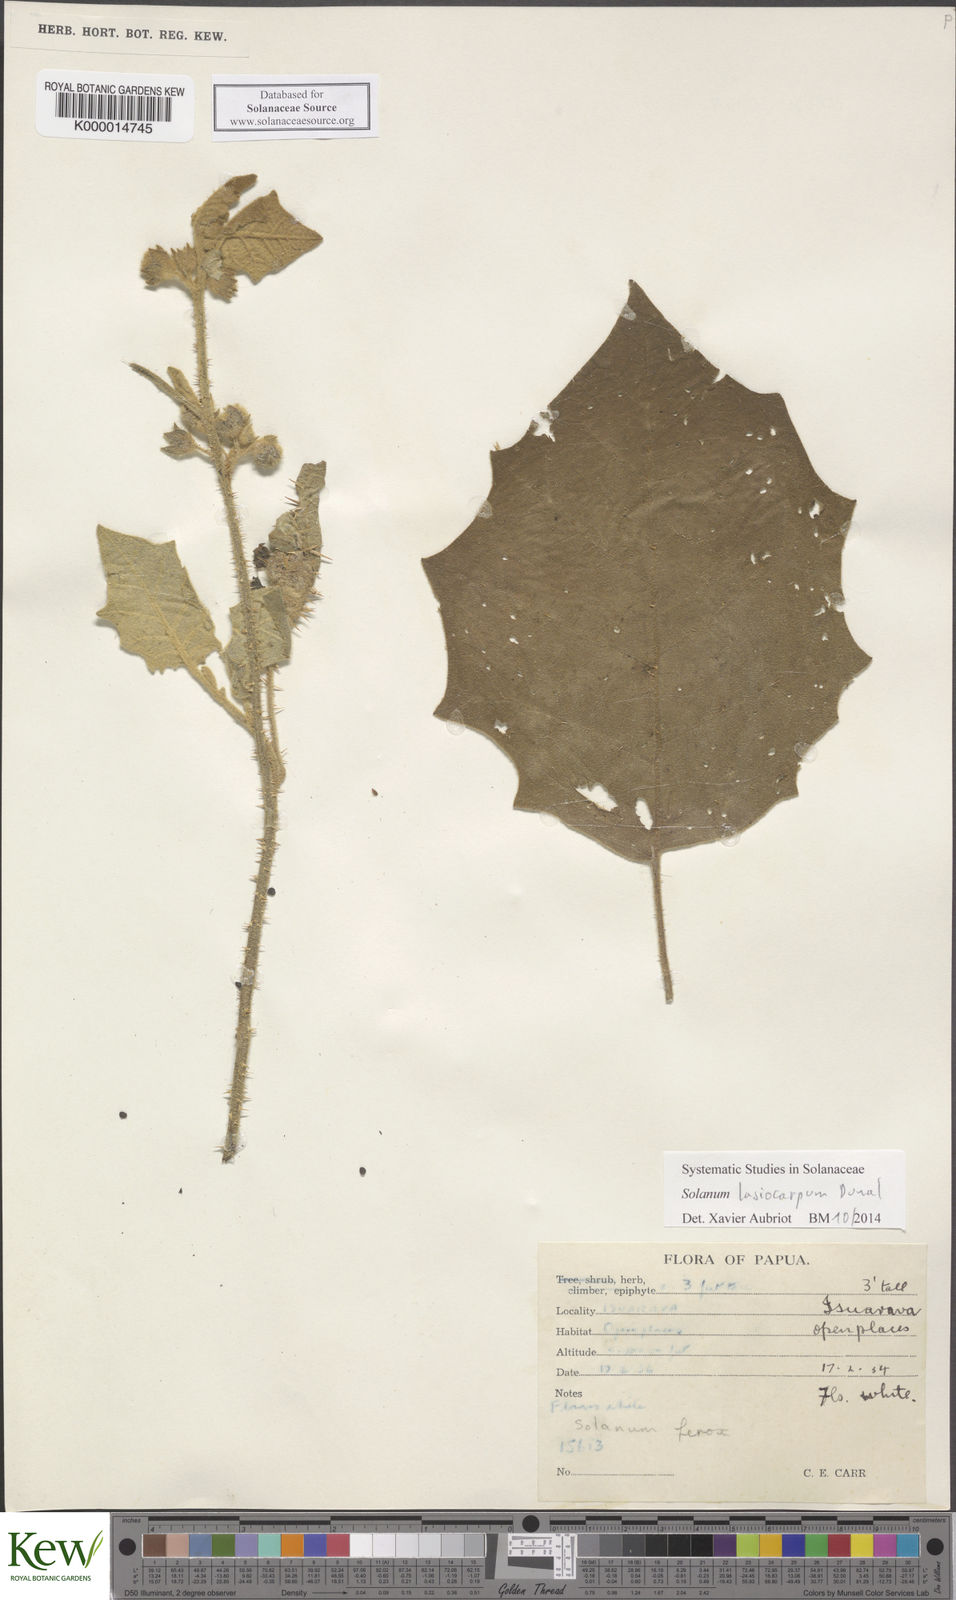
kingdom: Plantae
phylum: Tracheophyta
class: Magnoliopsida
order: Solanales
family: Solanaceae
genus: Solanum
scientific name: Solanum lasiocarpum
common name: Indian nightshade
